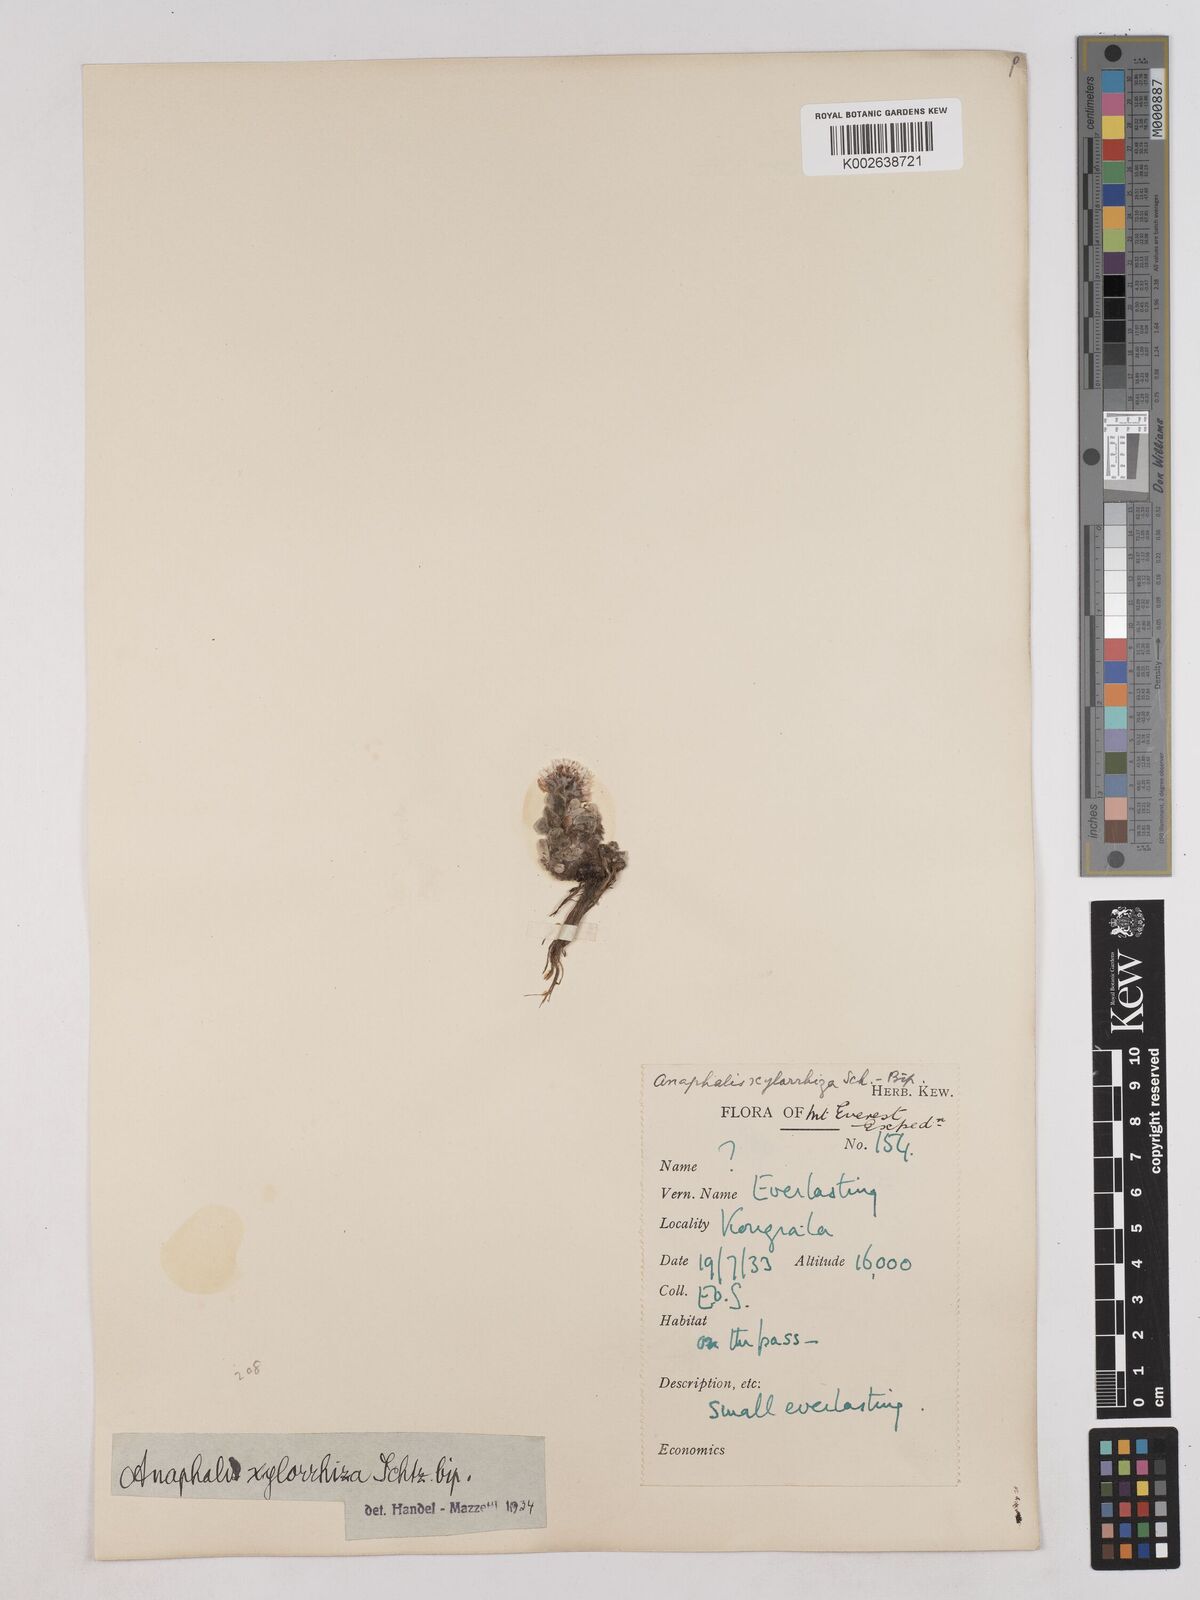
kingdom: Plantae
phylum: Tracheophyta
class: Magnoliopsida
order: Asterales
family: Asteraceae
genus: Anaphalis
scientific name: Anaphalis xylorhiza
